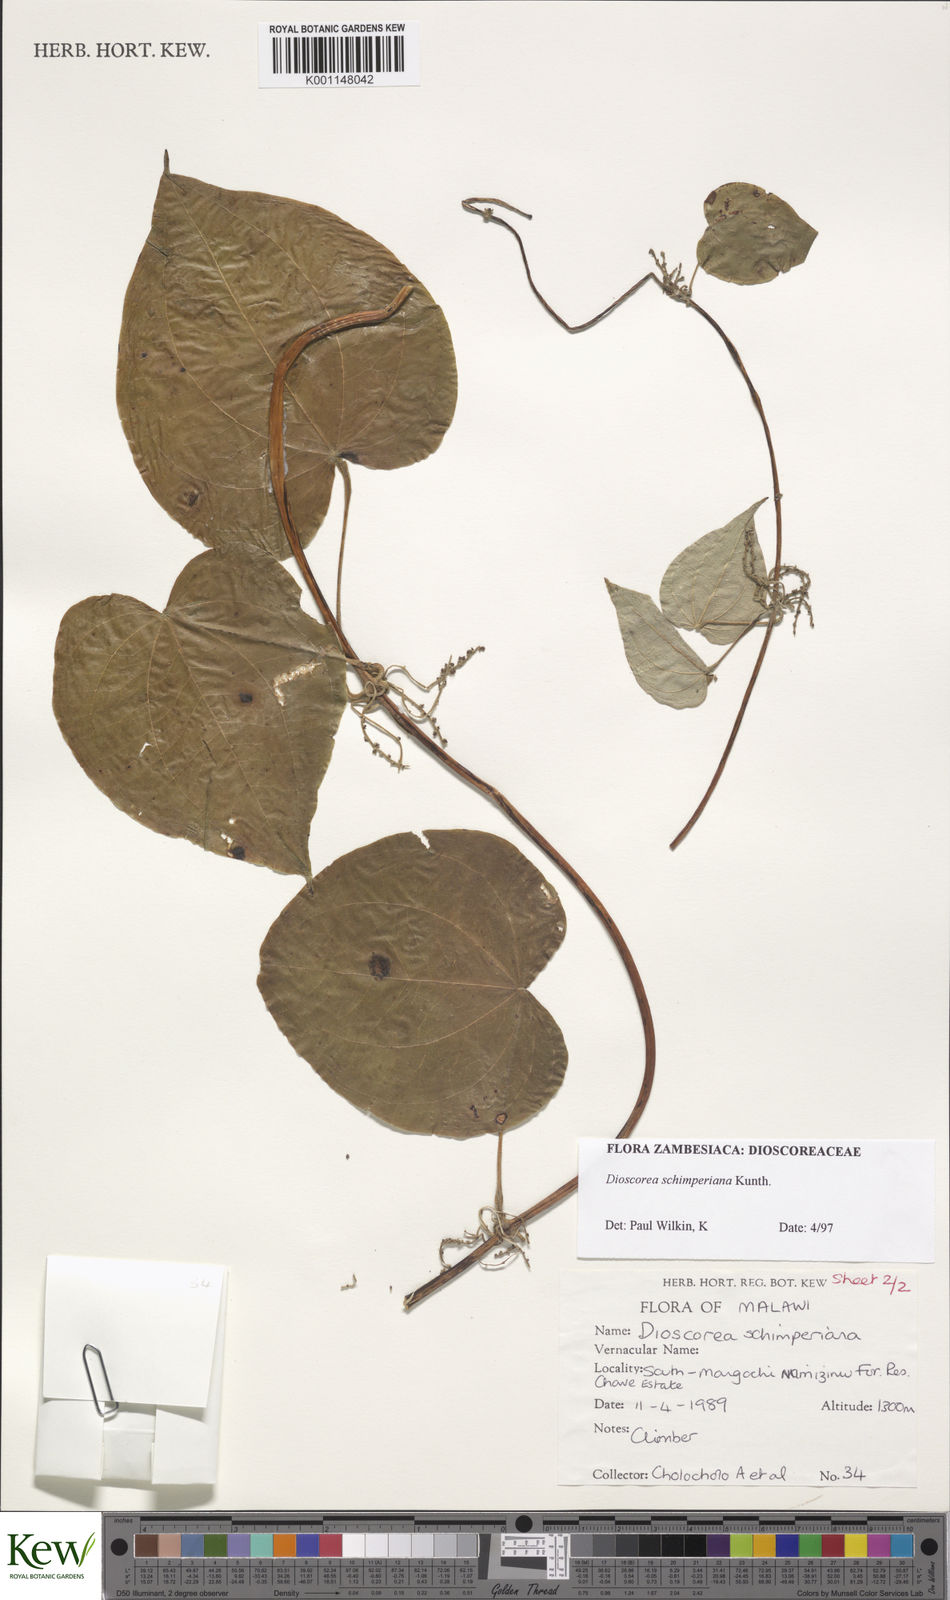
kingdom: Plantae
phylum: Tracheophyta
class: Liliopsida
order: Dioscoreales
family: Dioscoreaceae
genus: Dioscorea
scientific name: Dioscorea schimperiana
